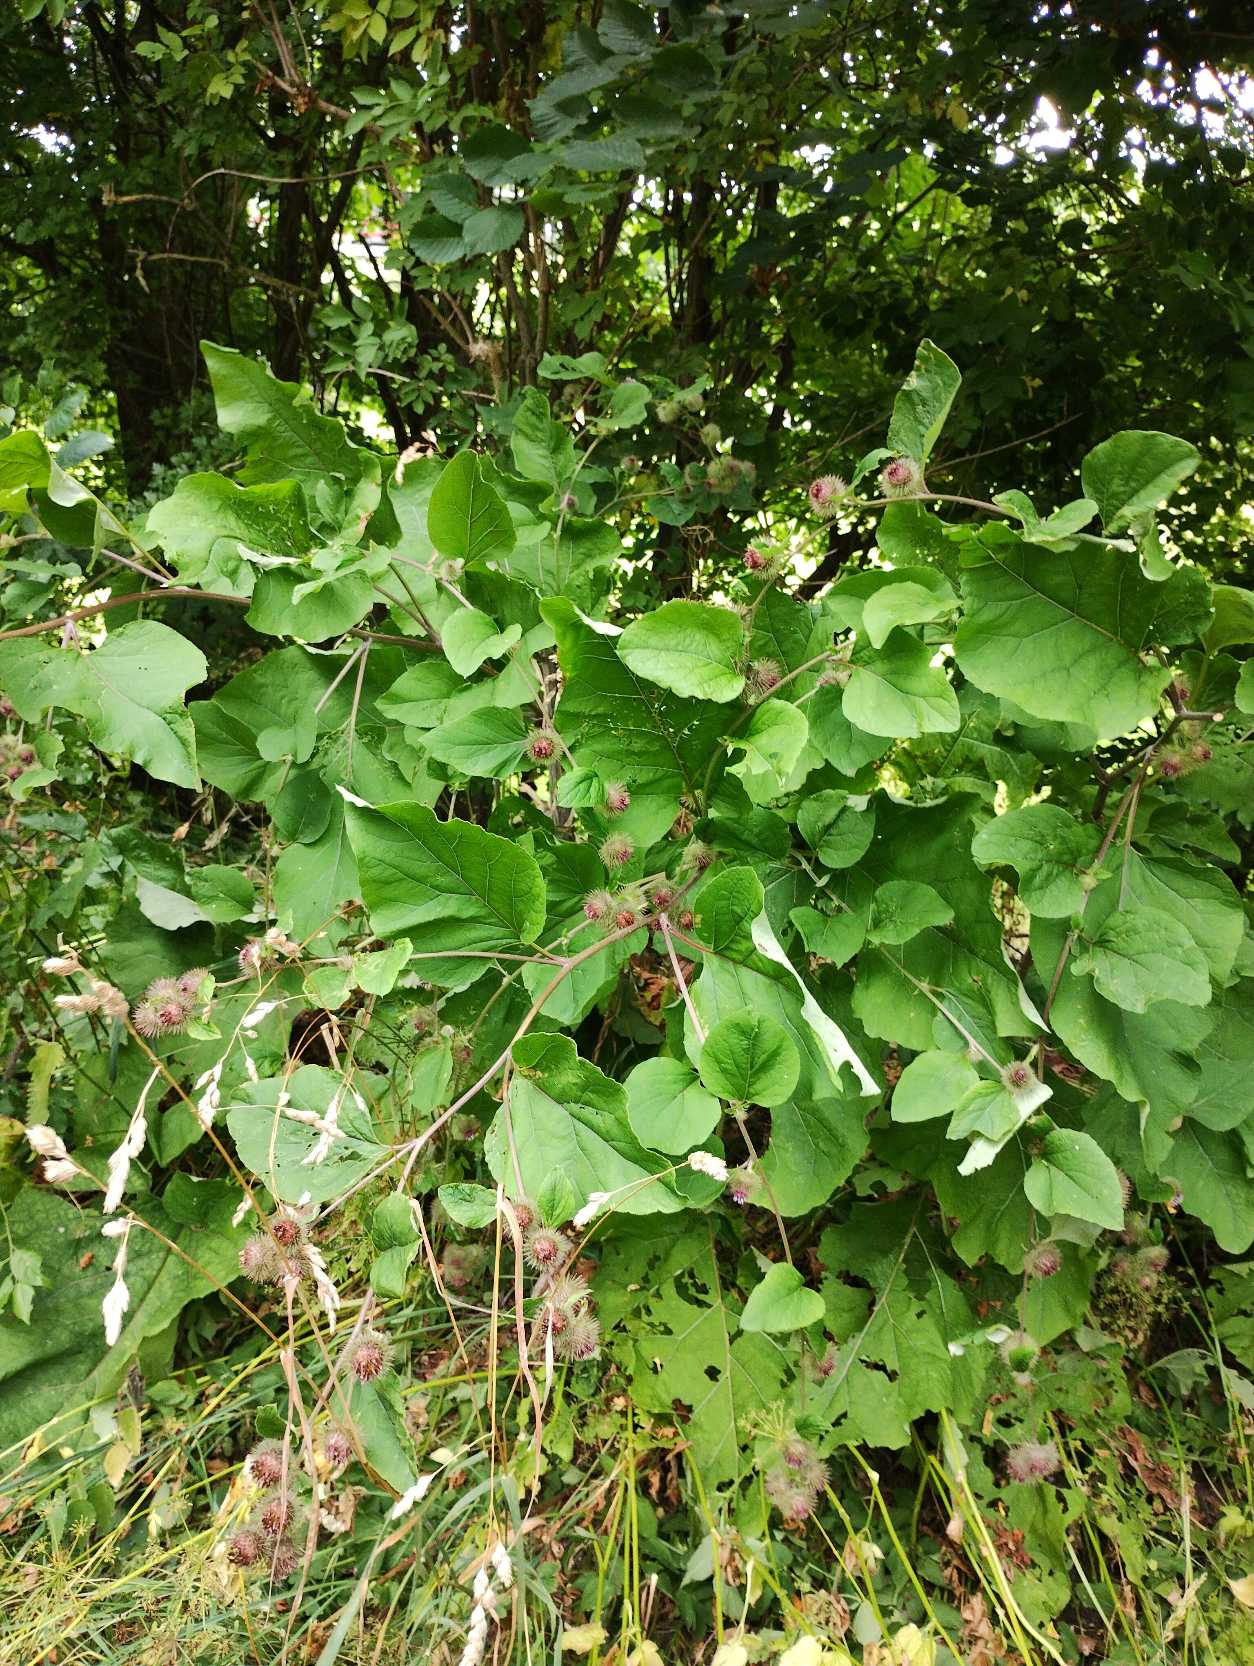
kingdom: Plantae
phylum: Tracheophyta
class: Magnoliopsida
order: Asterales
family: Asteraceae
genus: Arctium
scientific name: Arctium nemorosum
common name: Skov-burre
